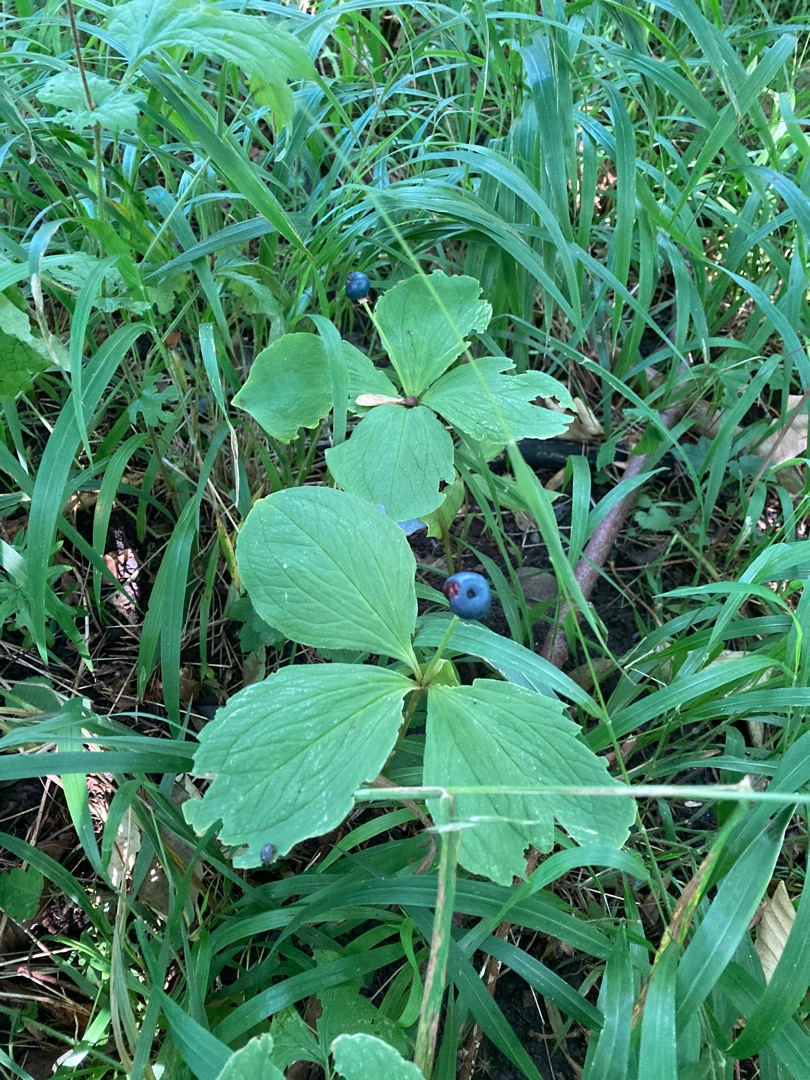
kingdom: Plantae
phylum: Tracheophyta
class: Liliopsida
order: Liliales
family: Melanthiaceae
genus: Paris
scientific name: Paris quadrifolia
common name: Firblad
